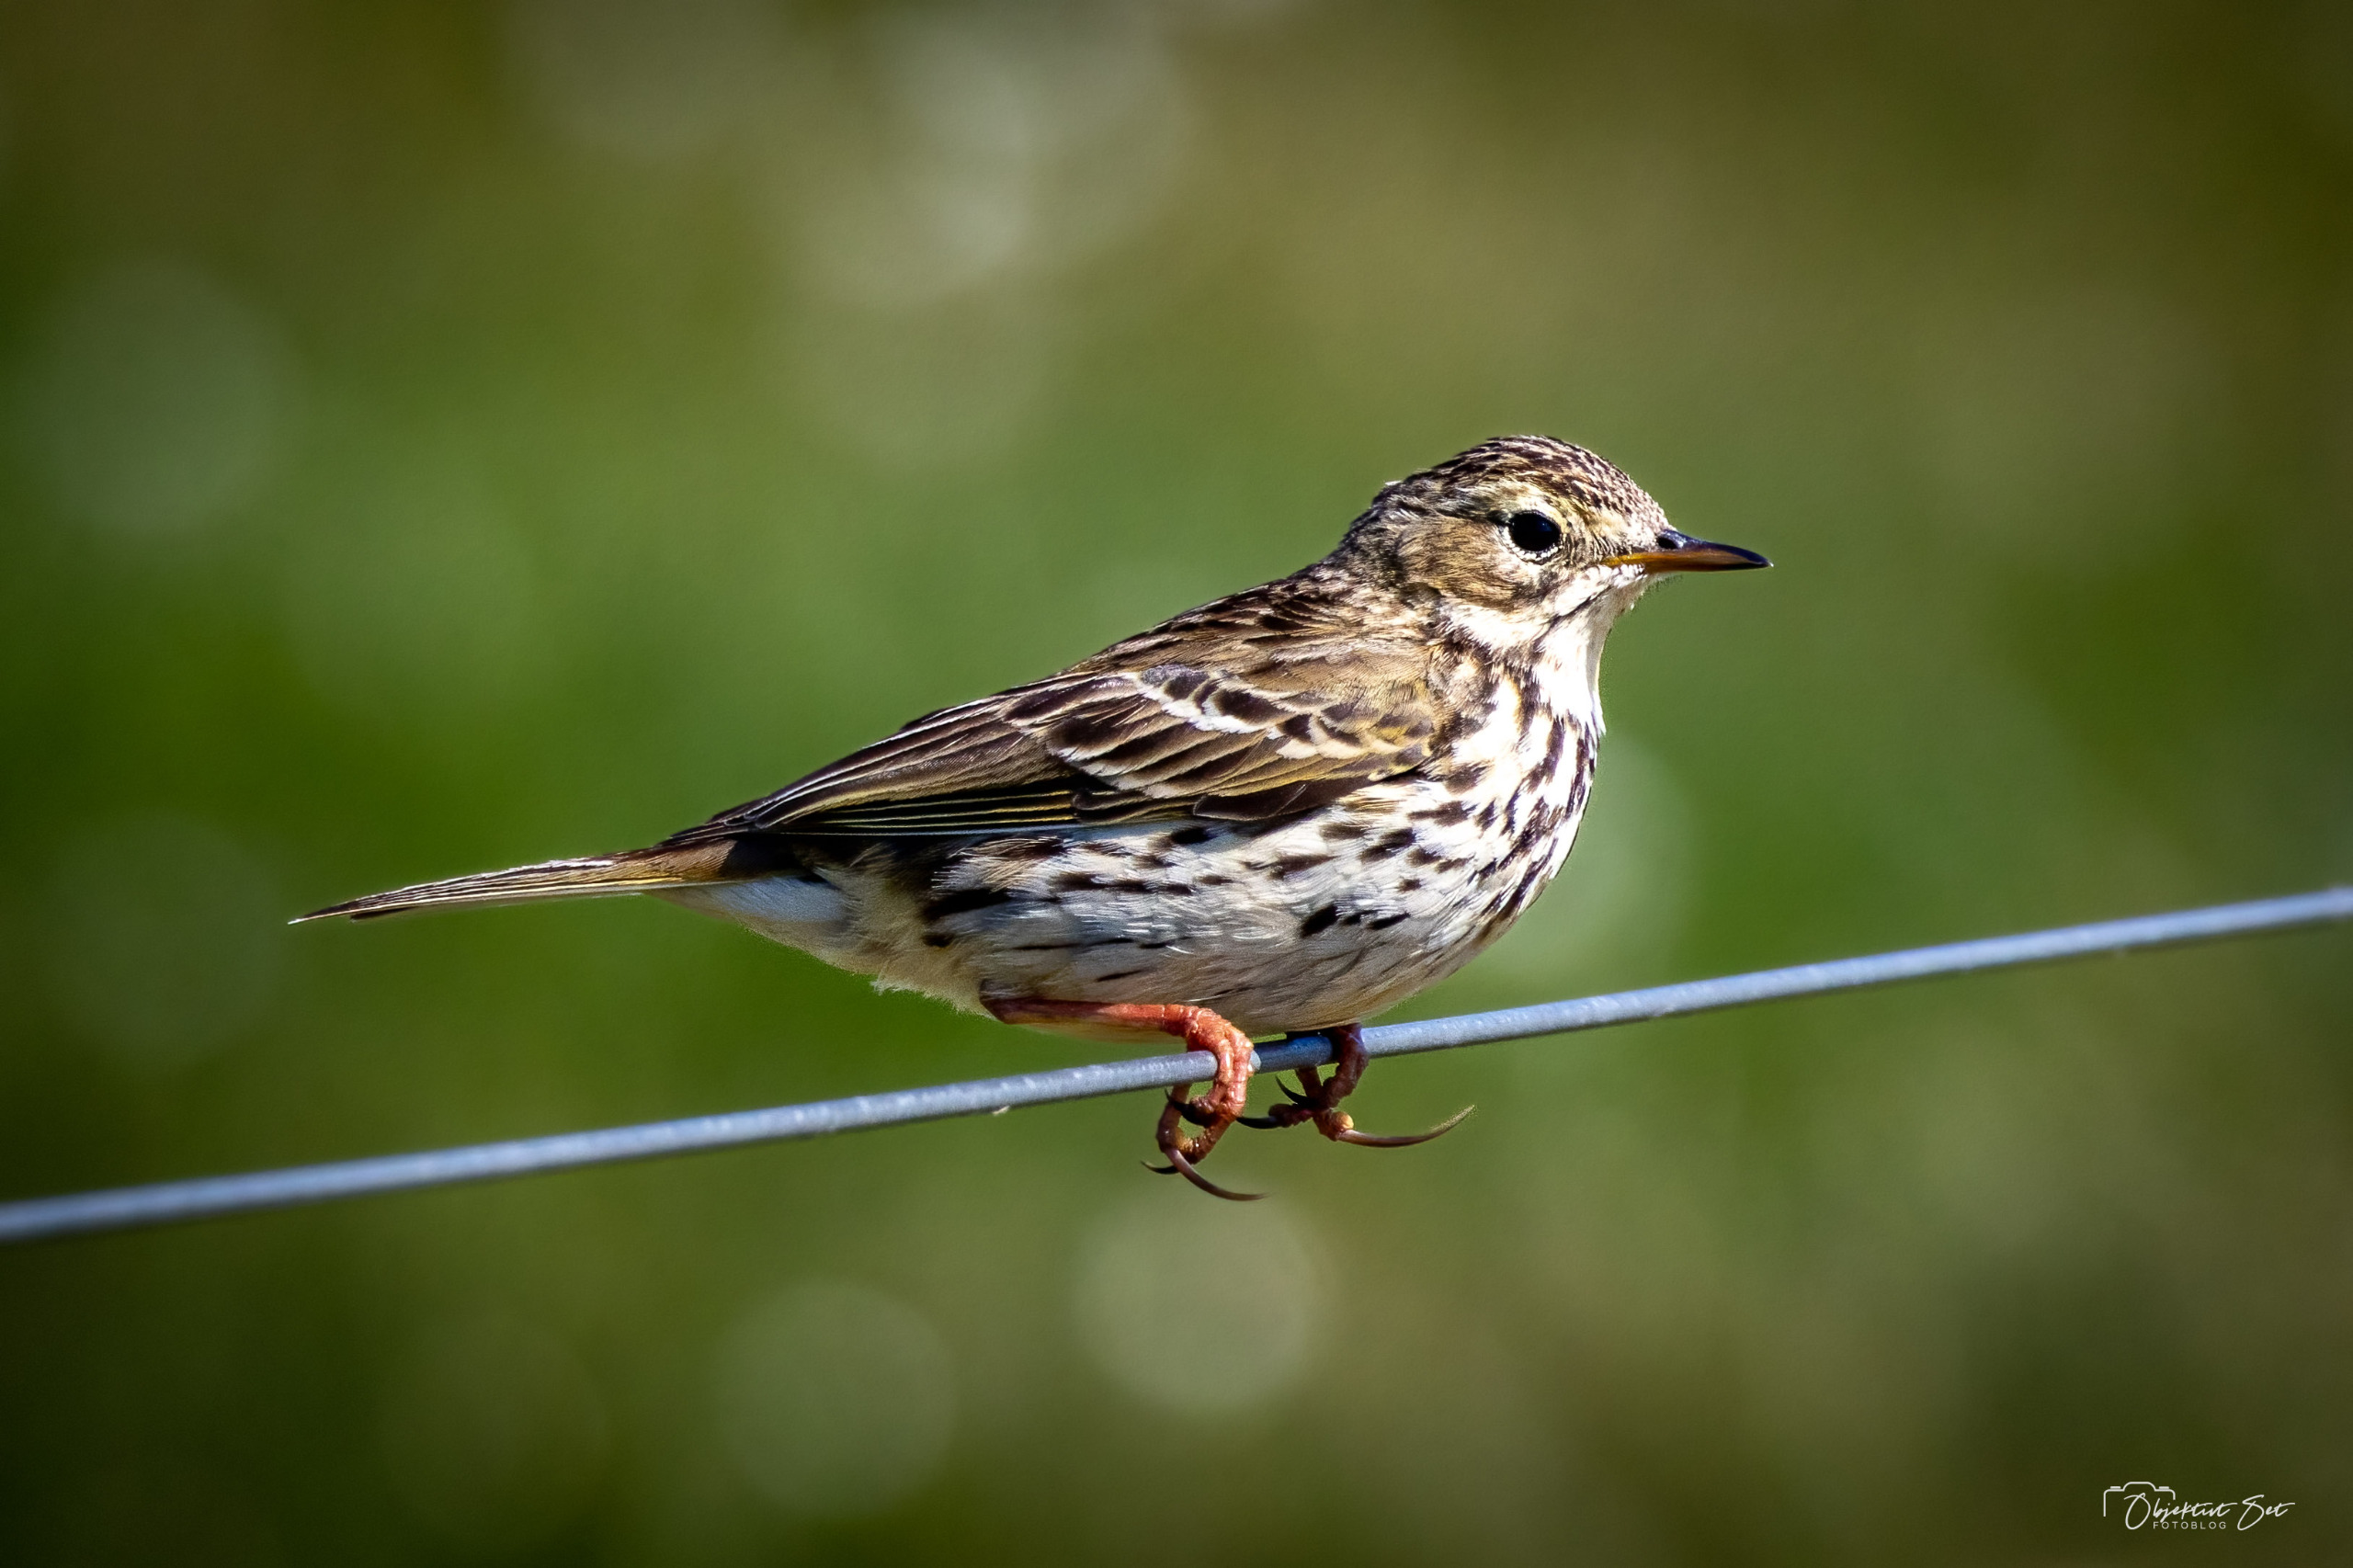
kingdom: Animalia
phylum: Chordata
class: Aves
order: Passeriformes
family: Motacillidae
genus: Anthus
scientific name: Anthus pratensis
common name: Engpiber
